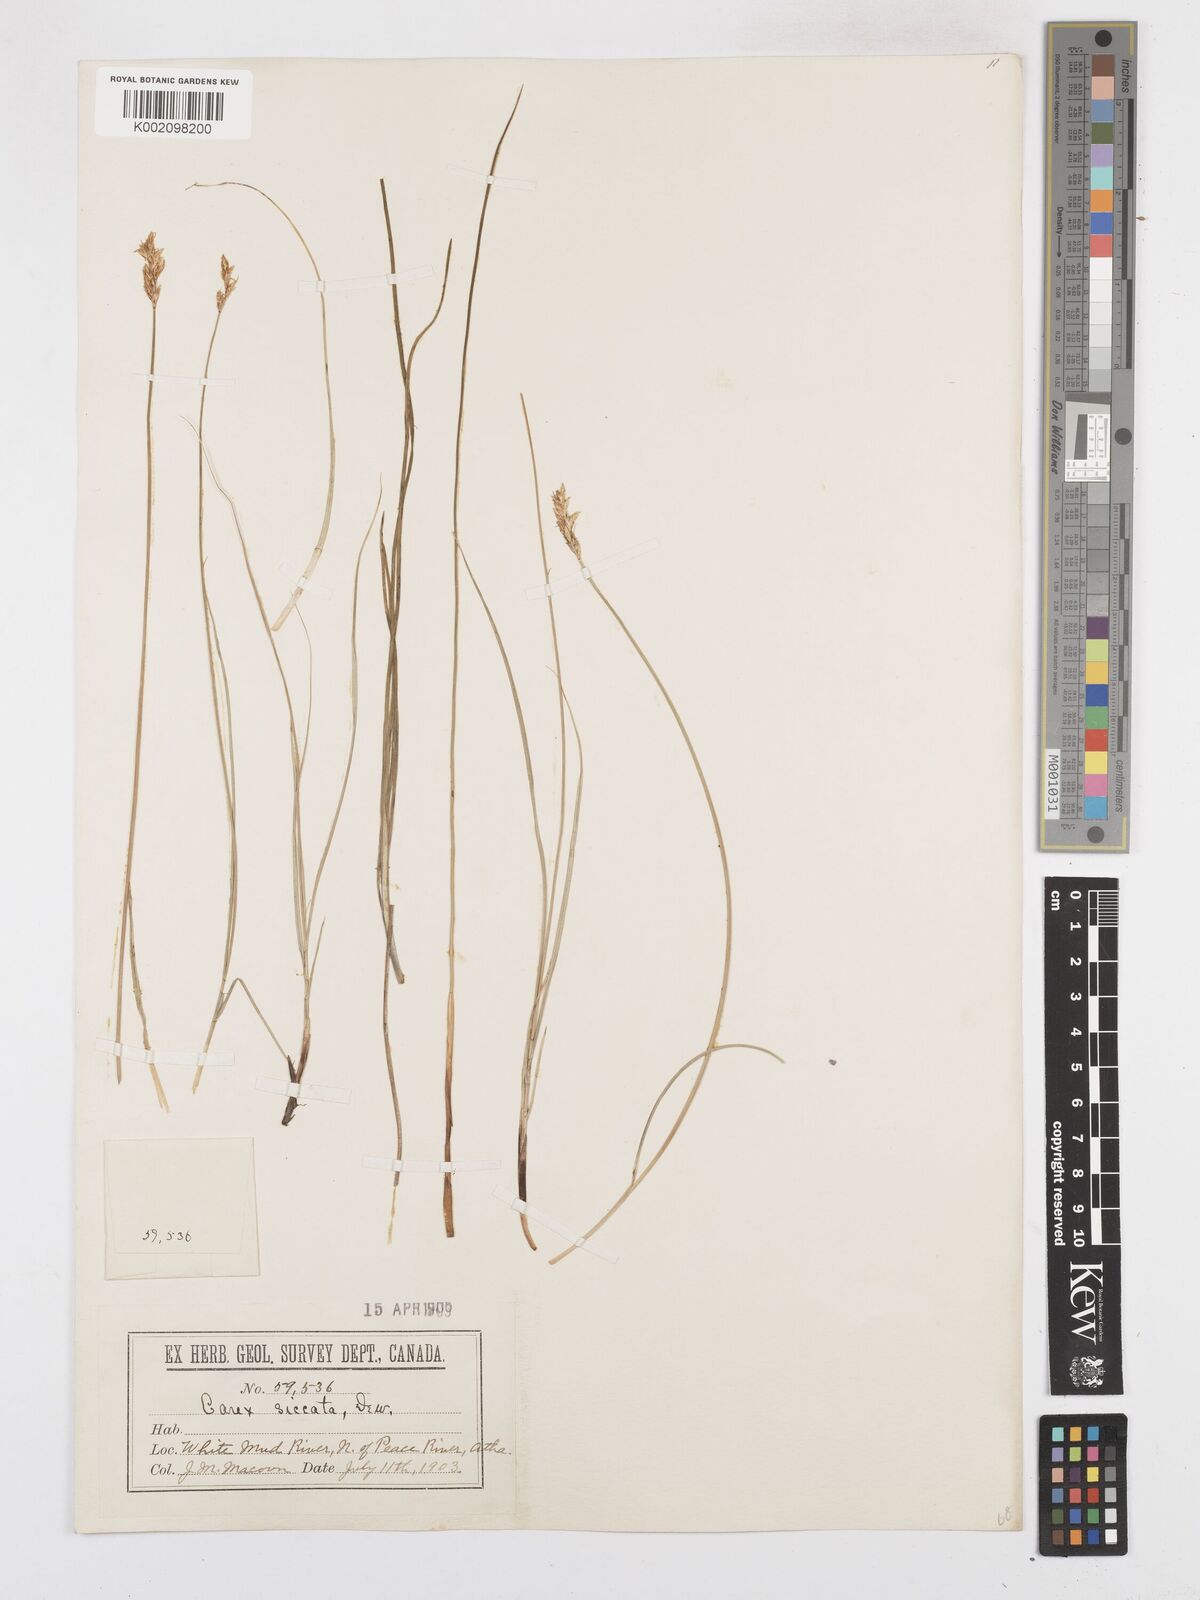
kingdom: Plantae
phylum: Tracheophyta
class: Liliopsida
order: Poales
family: Cyperaceae
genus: Carex
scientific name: Carex foenea
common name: Bronze sedge
